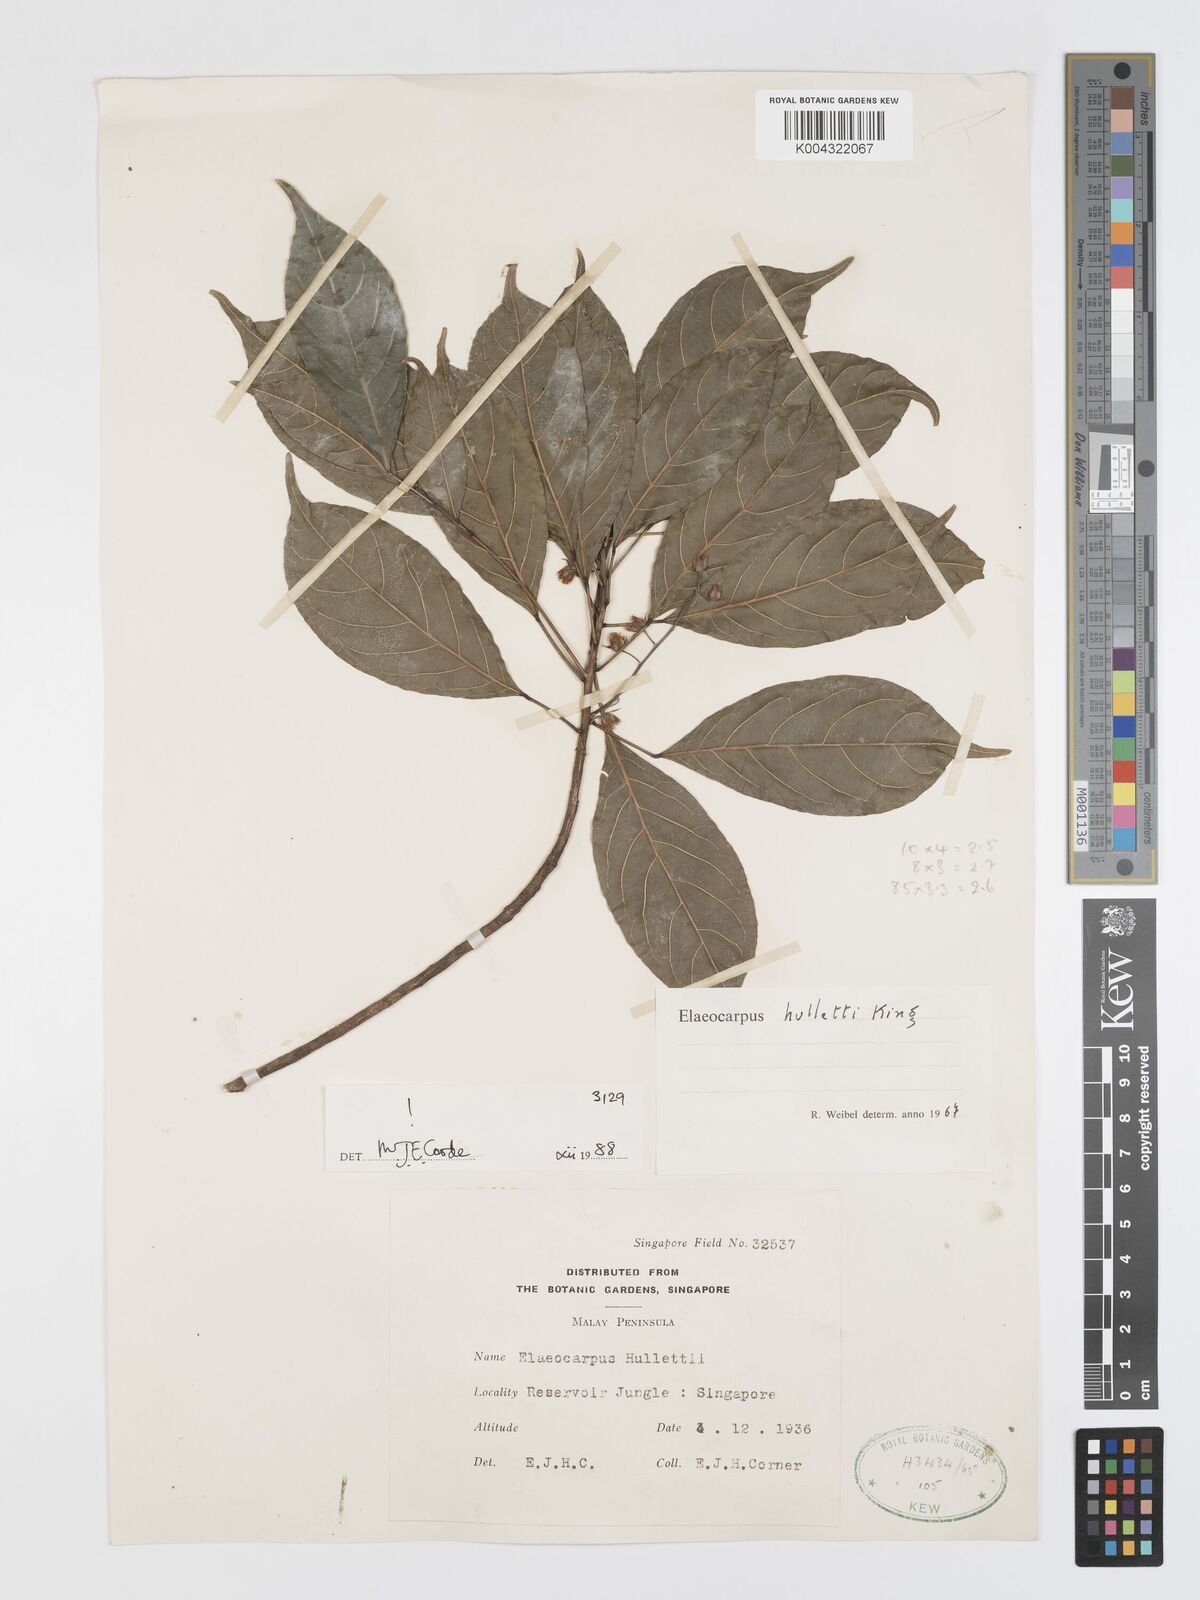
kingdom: Plantae
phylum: Tracheophyta
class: Magnoliopsida
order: Oxalidales
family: Elaeocarpaceae
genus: Elaeocarpus
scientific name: Elaeocarpus palembanicus
